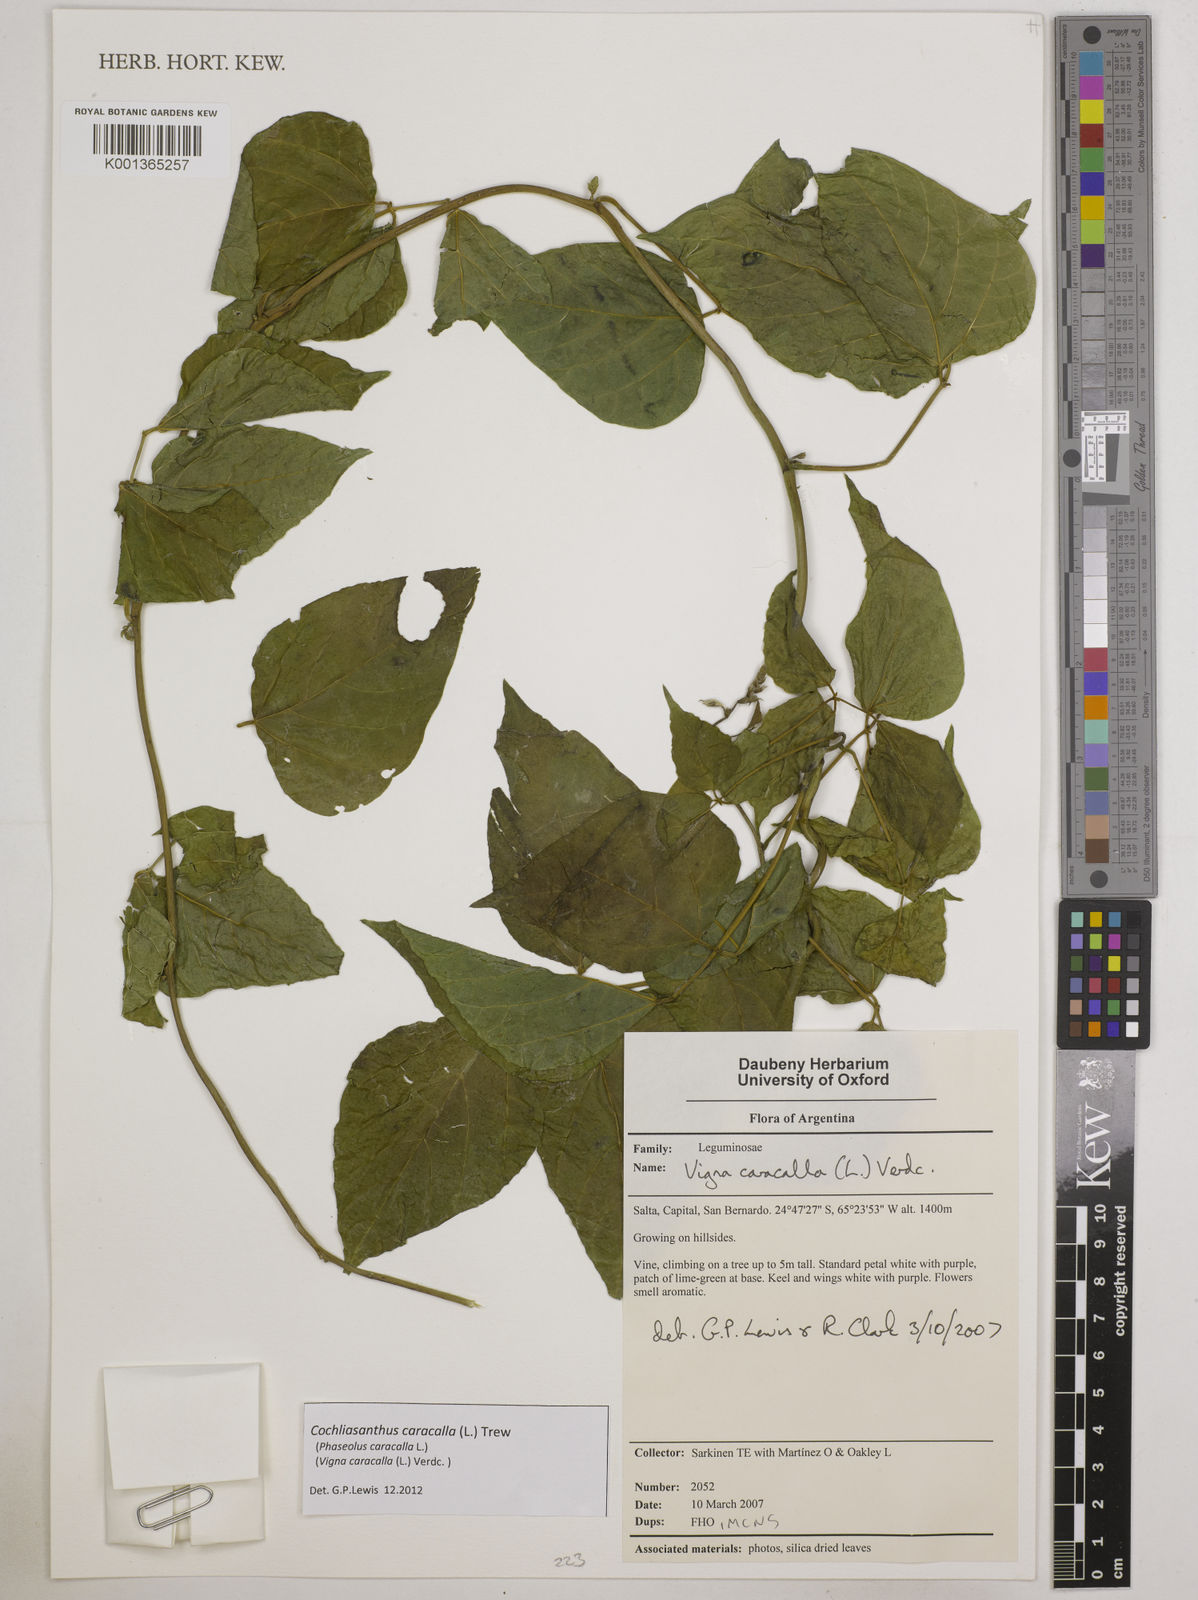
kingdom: Plantae
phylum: Tracheophyta
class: Magnoliopsida
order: Fabales
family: Fabaceae
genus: Cochliasanthus
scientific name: Cochliasanthus caracalla
